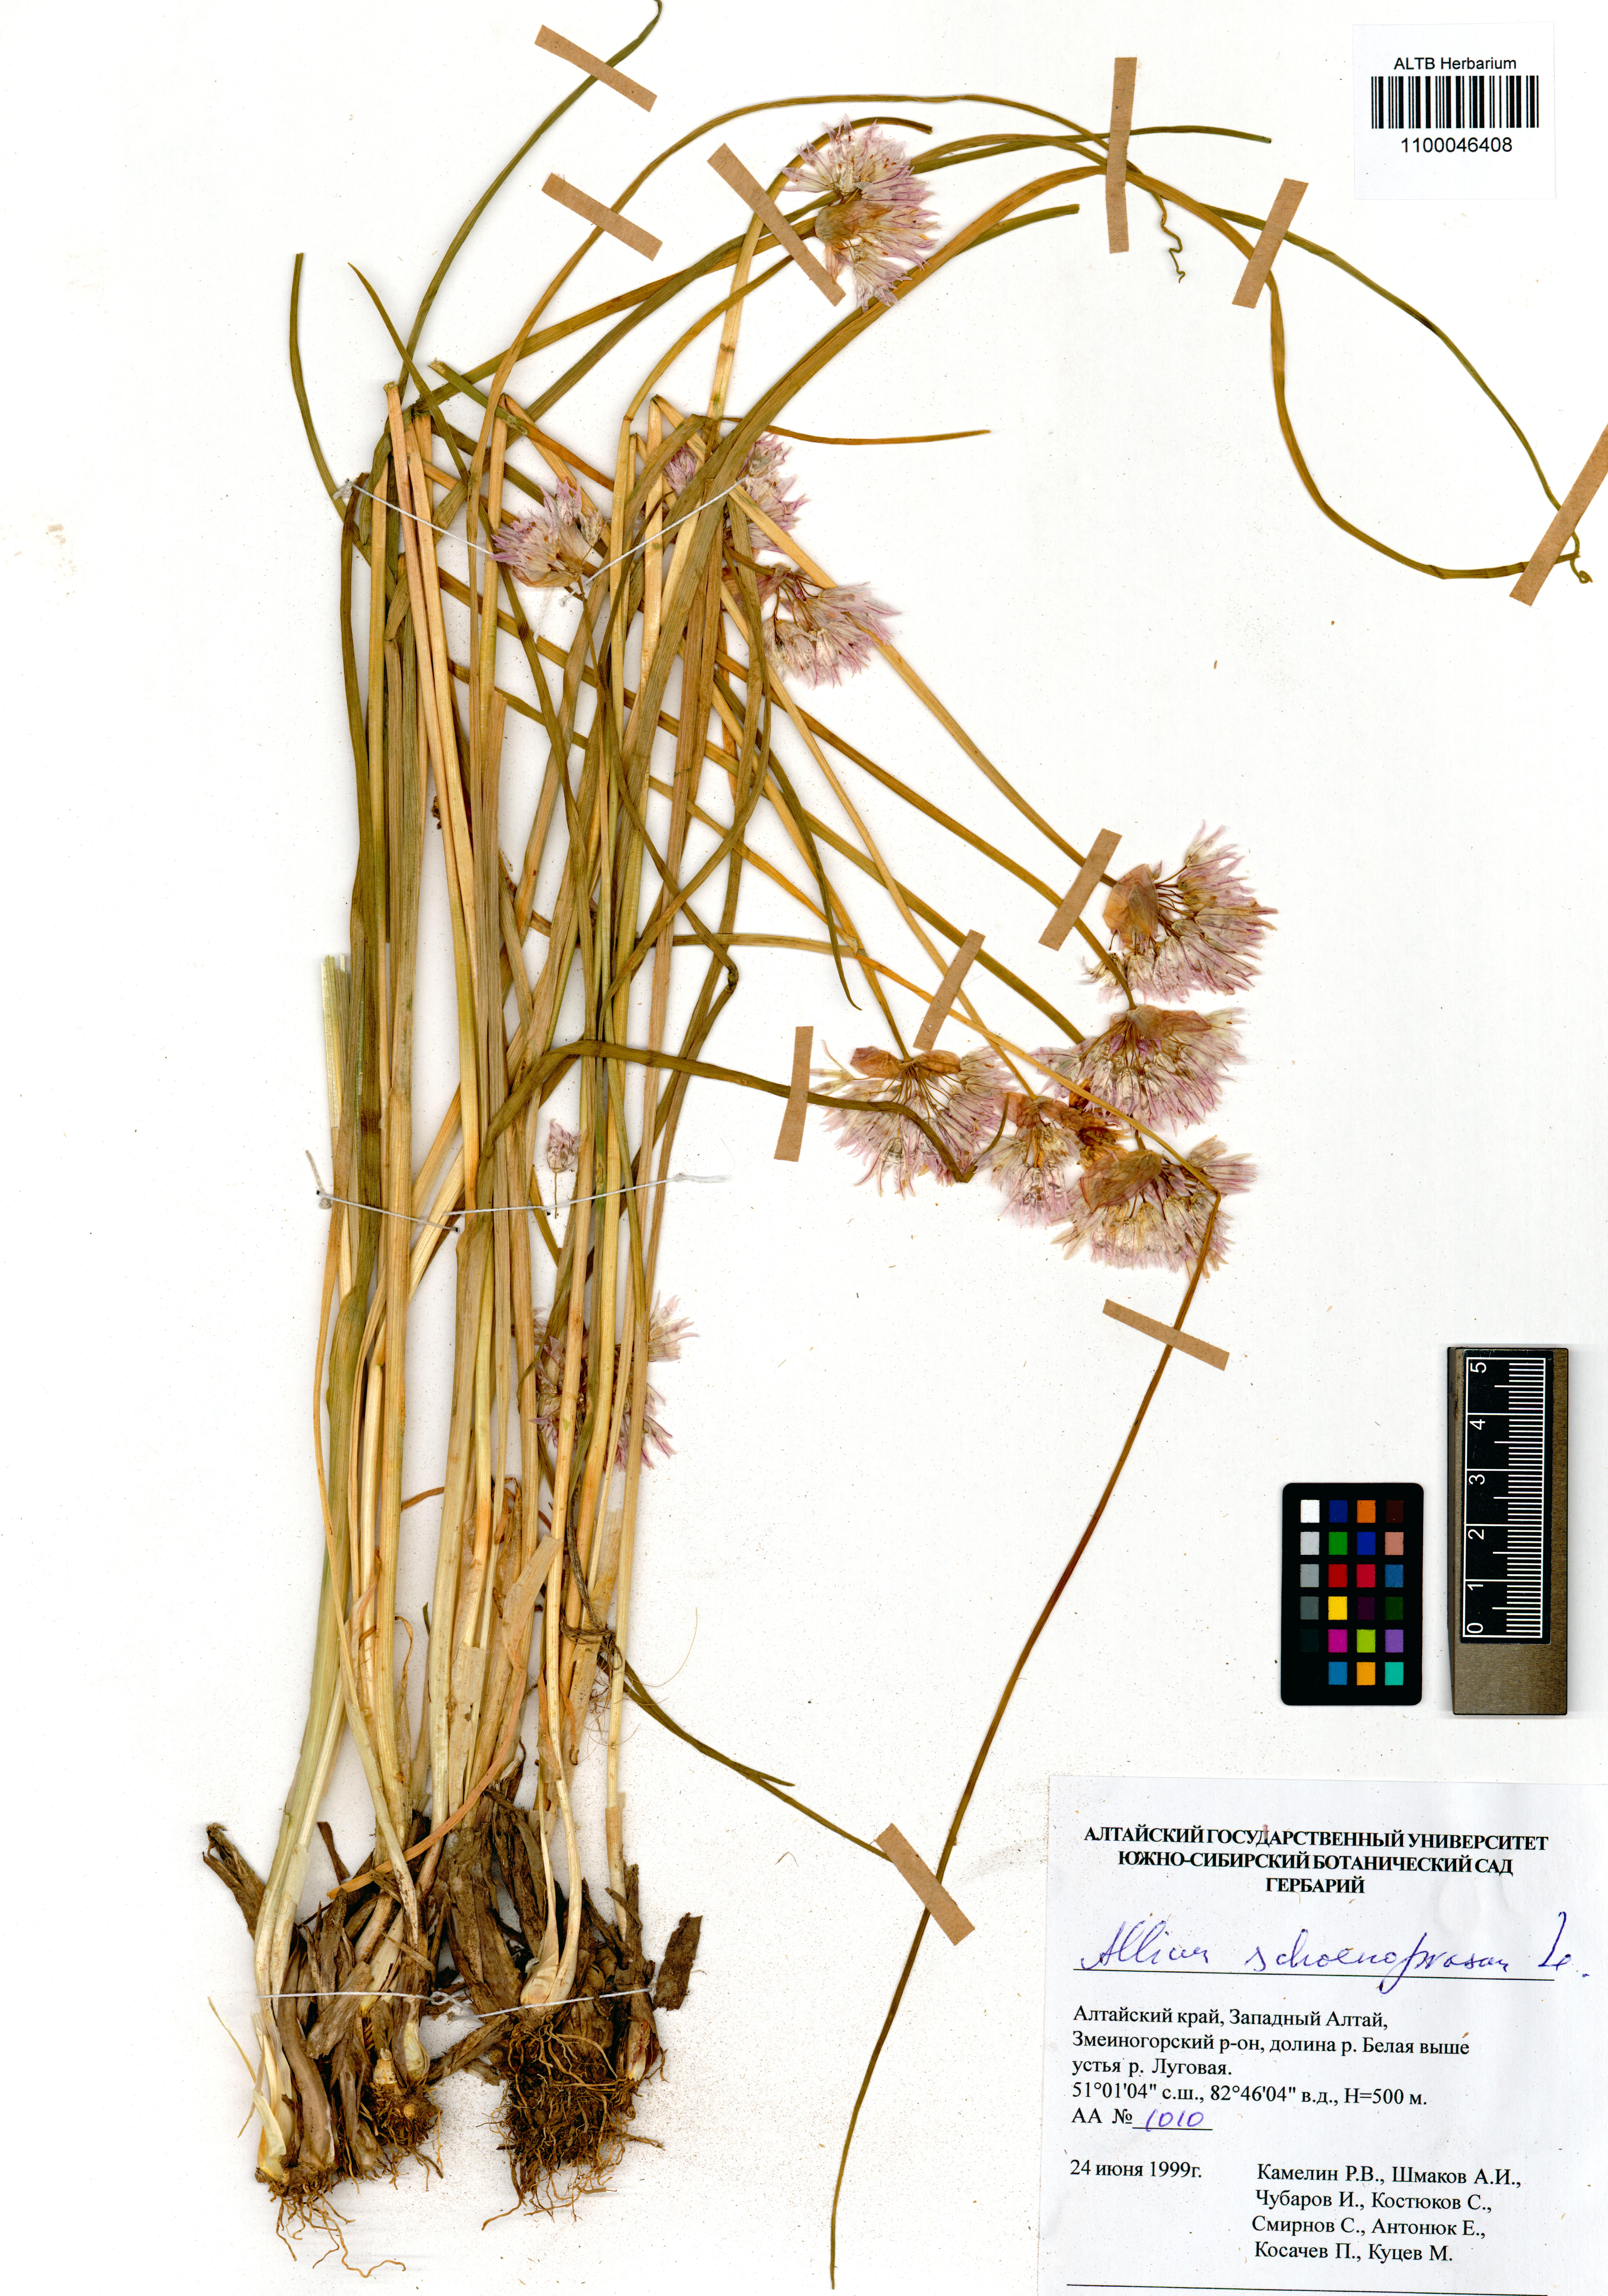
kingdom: Plantae
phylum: Tracheophyta
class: Liliopsida
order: Asparagales
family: Amaryllidaceae
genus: Allium
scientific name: Allium schoenoprasum
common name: Chives
